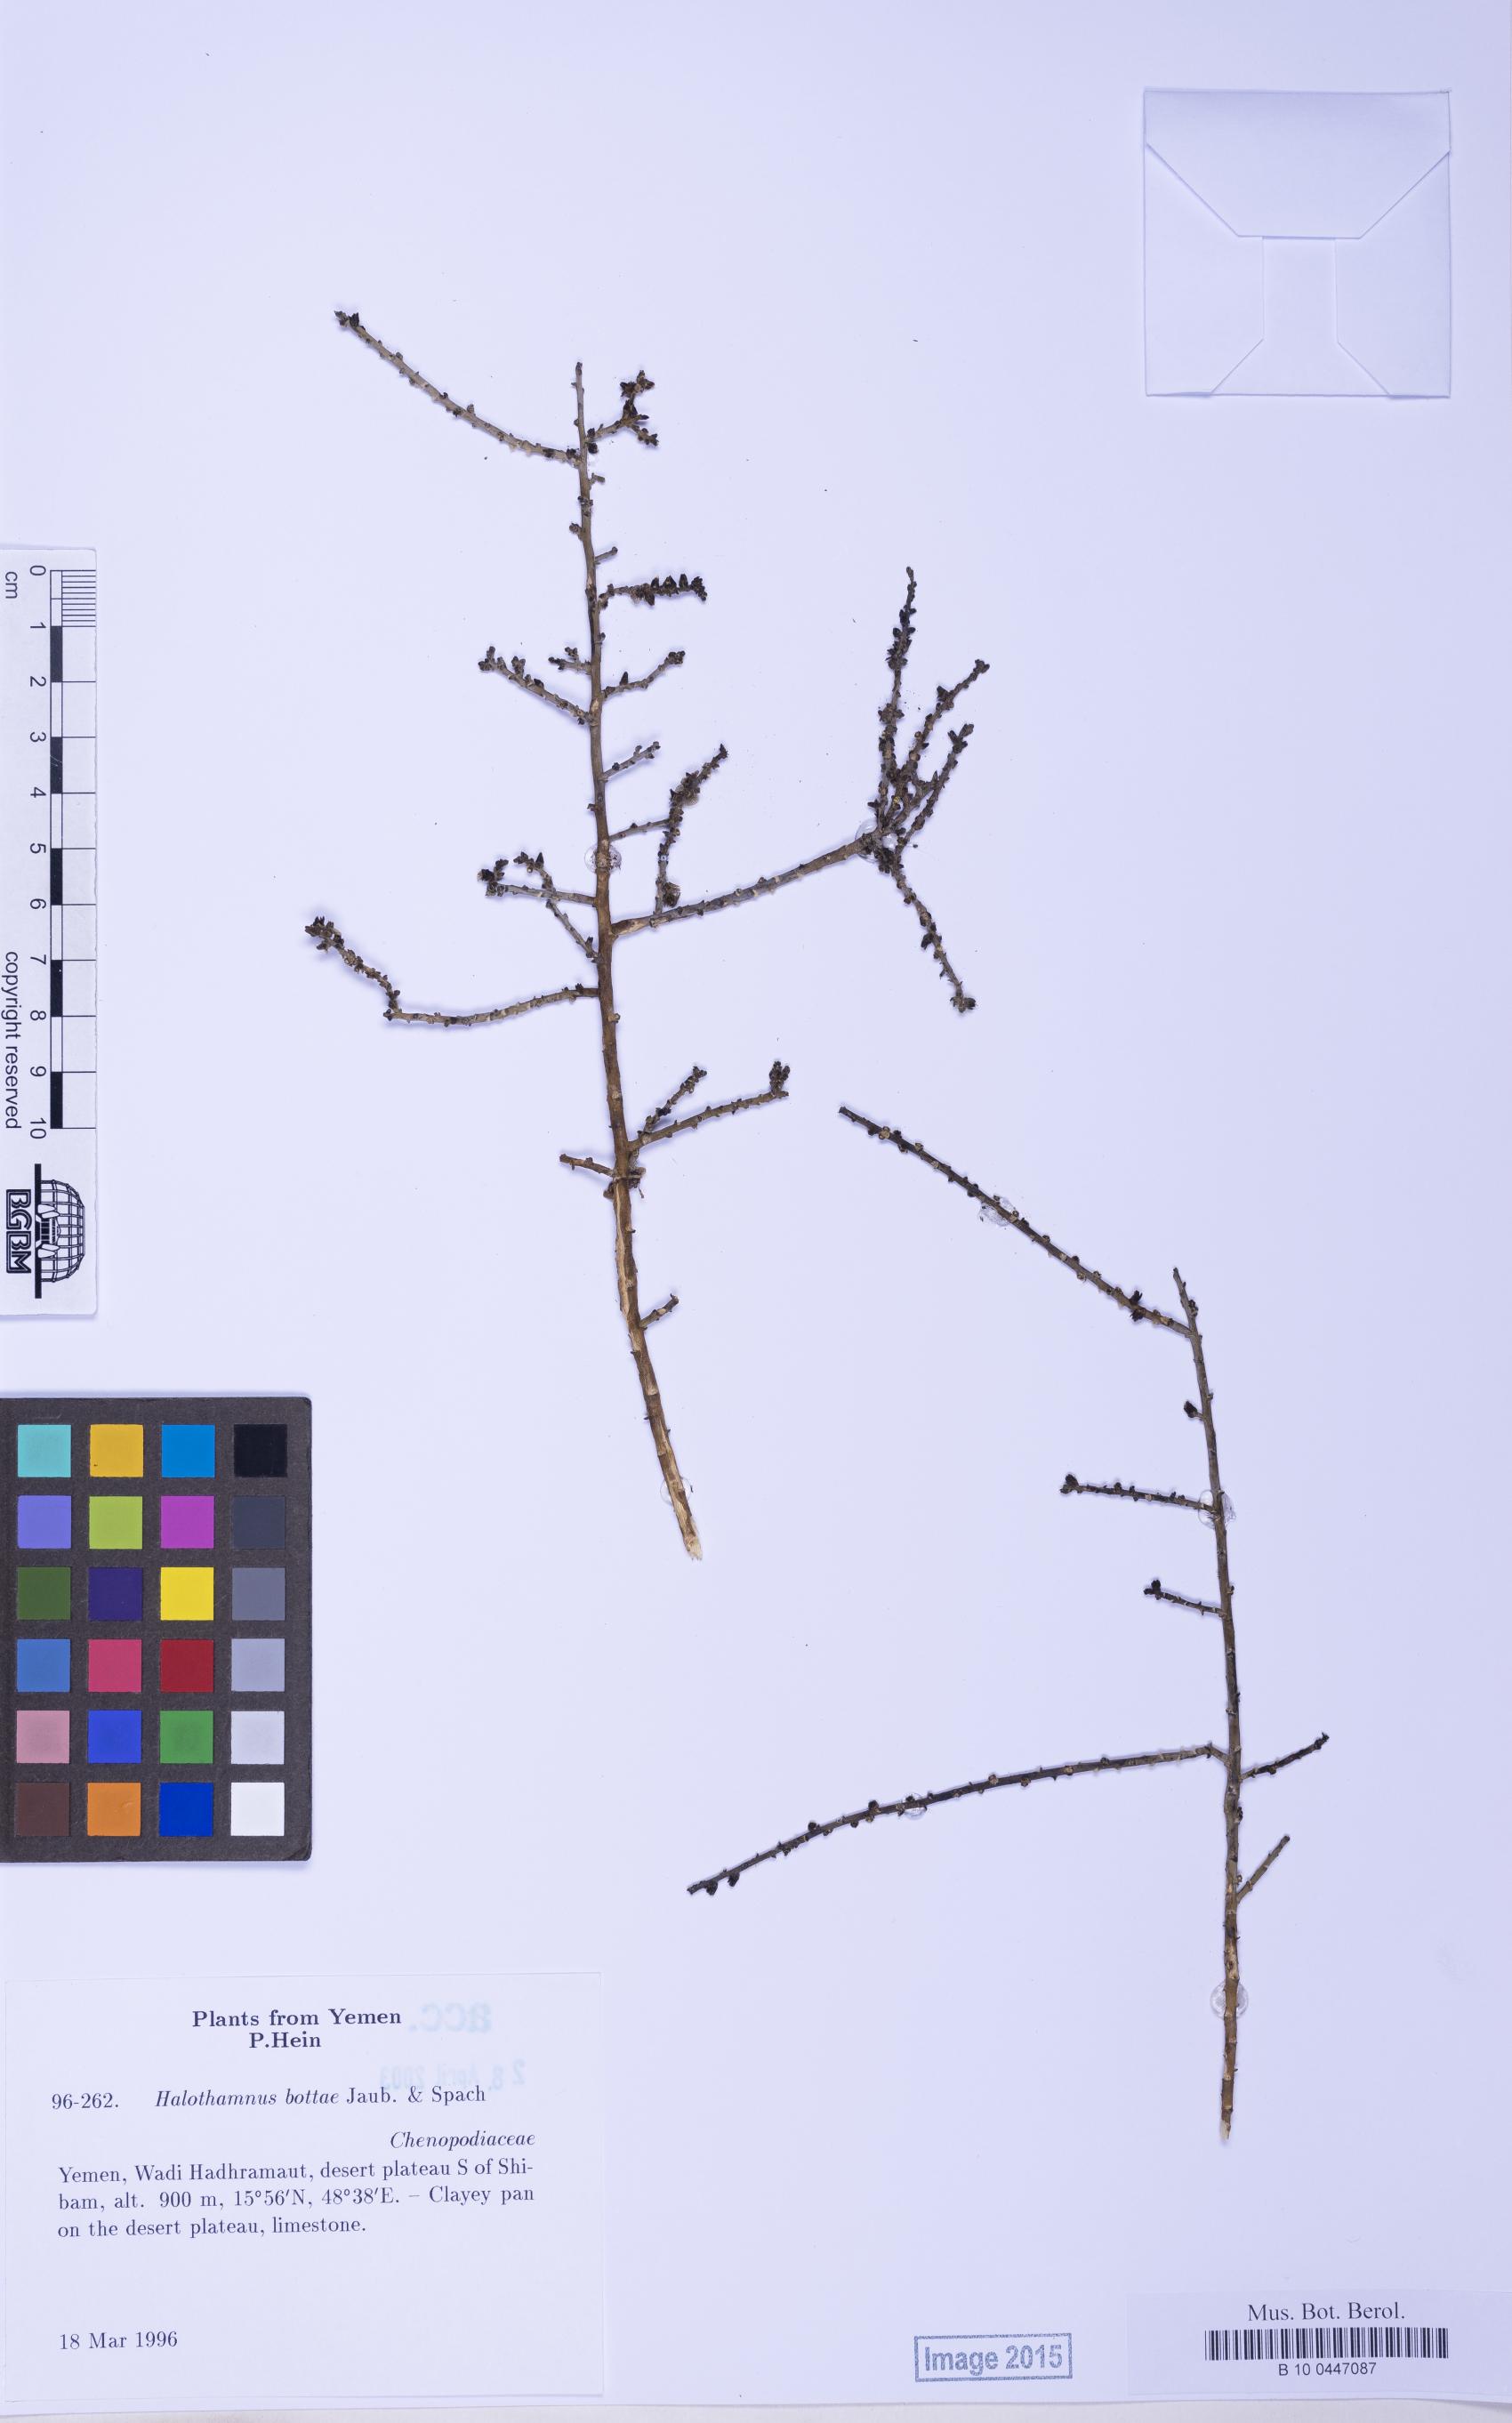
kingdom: Plantae
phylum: Tracheophyta
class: Magnoliopsida
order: Caryophyllales
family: Amaranthaceae
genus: Halothamnus
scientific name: Halothamnus bottae
